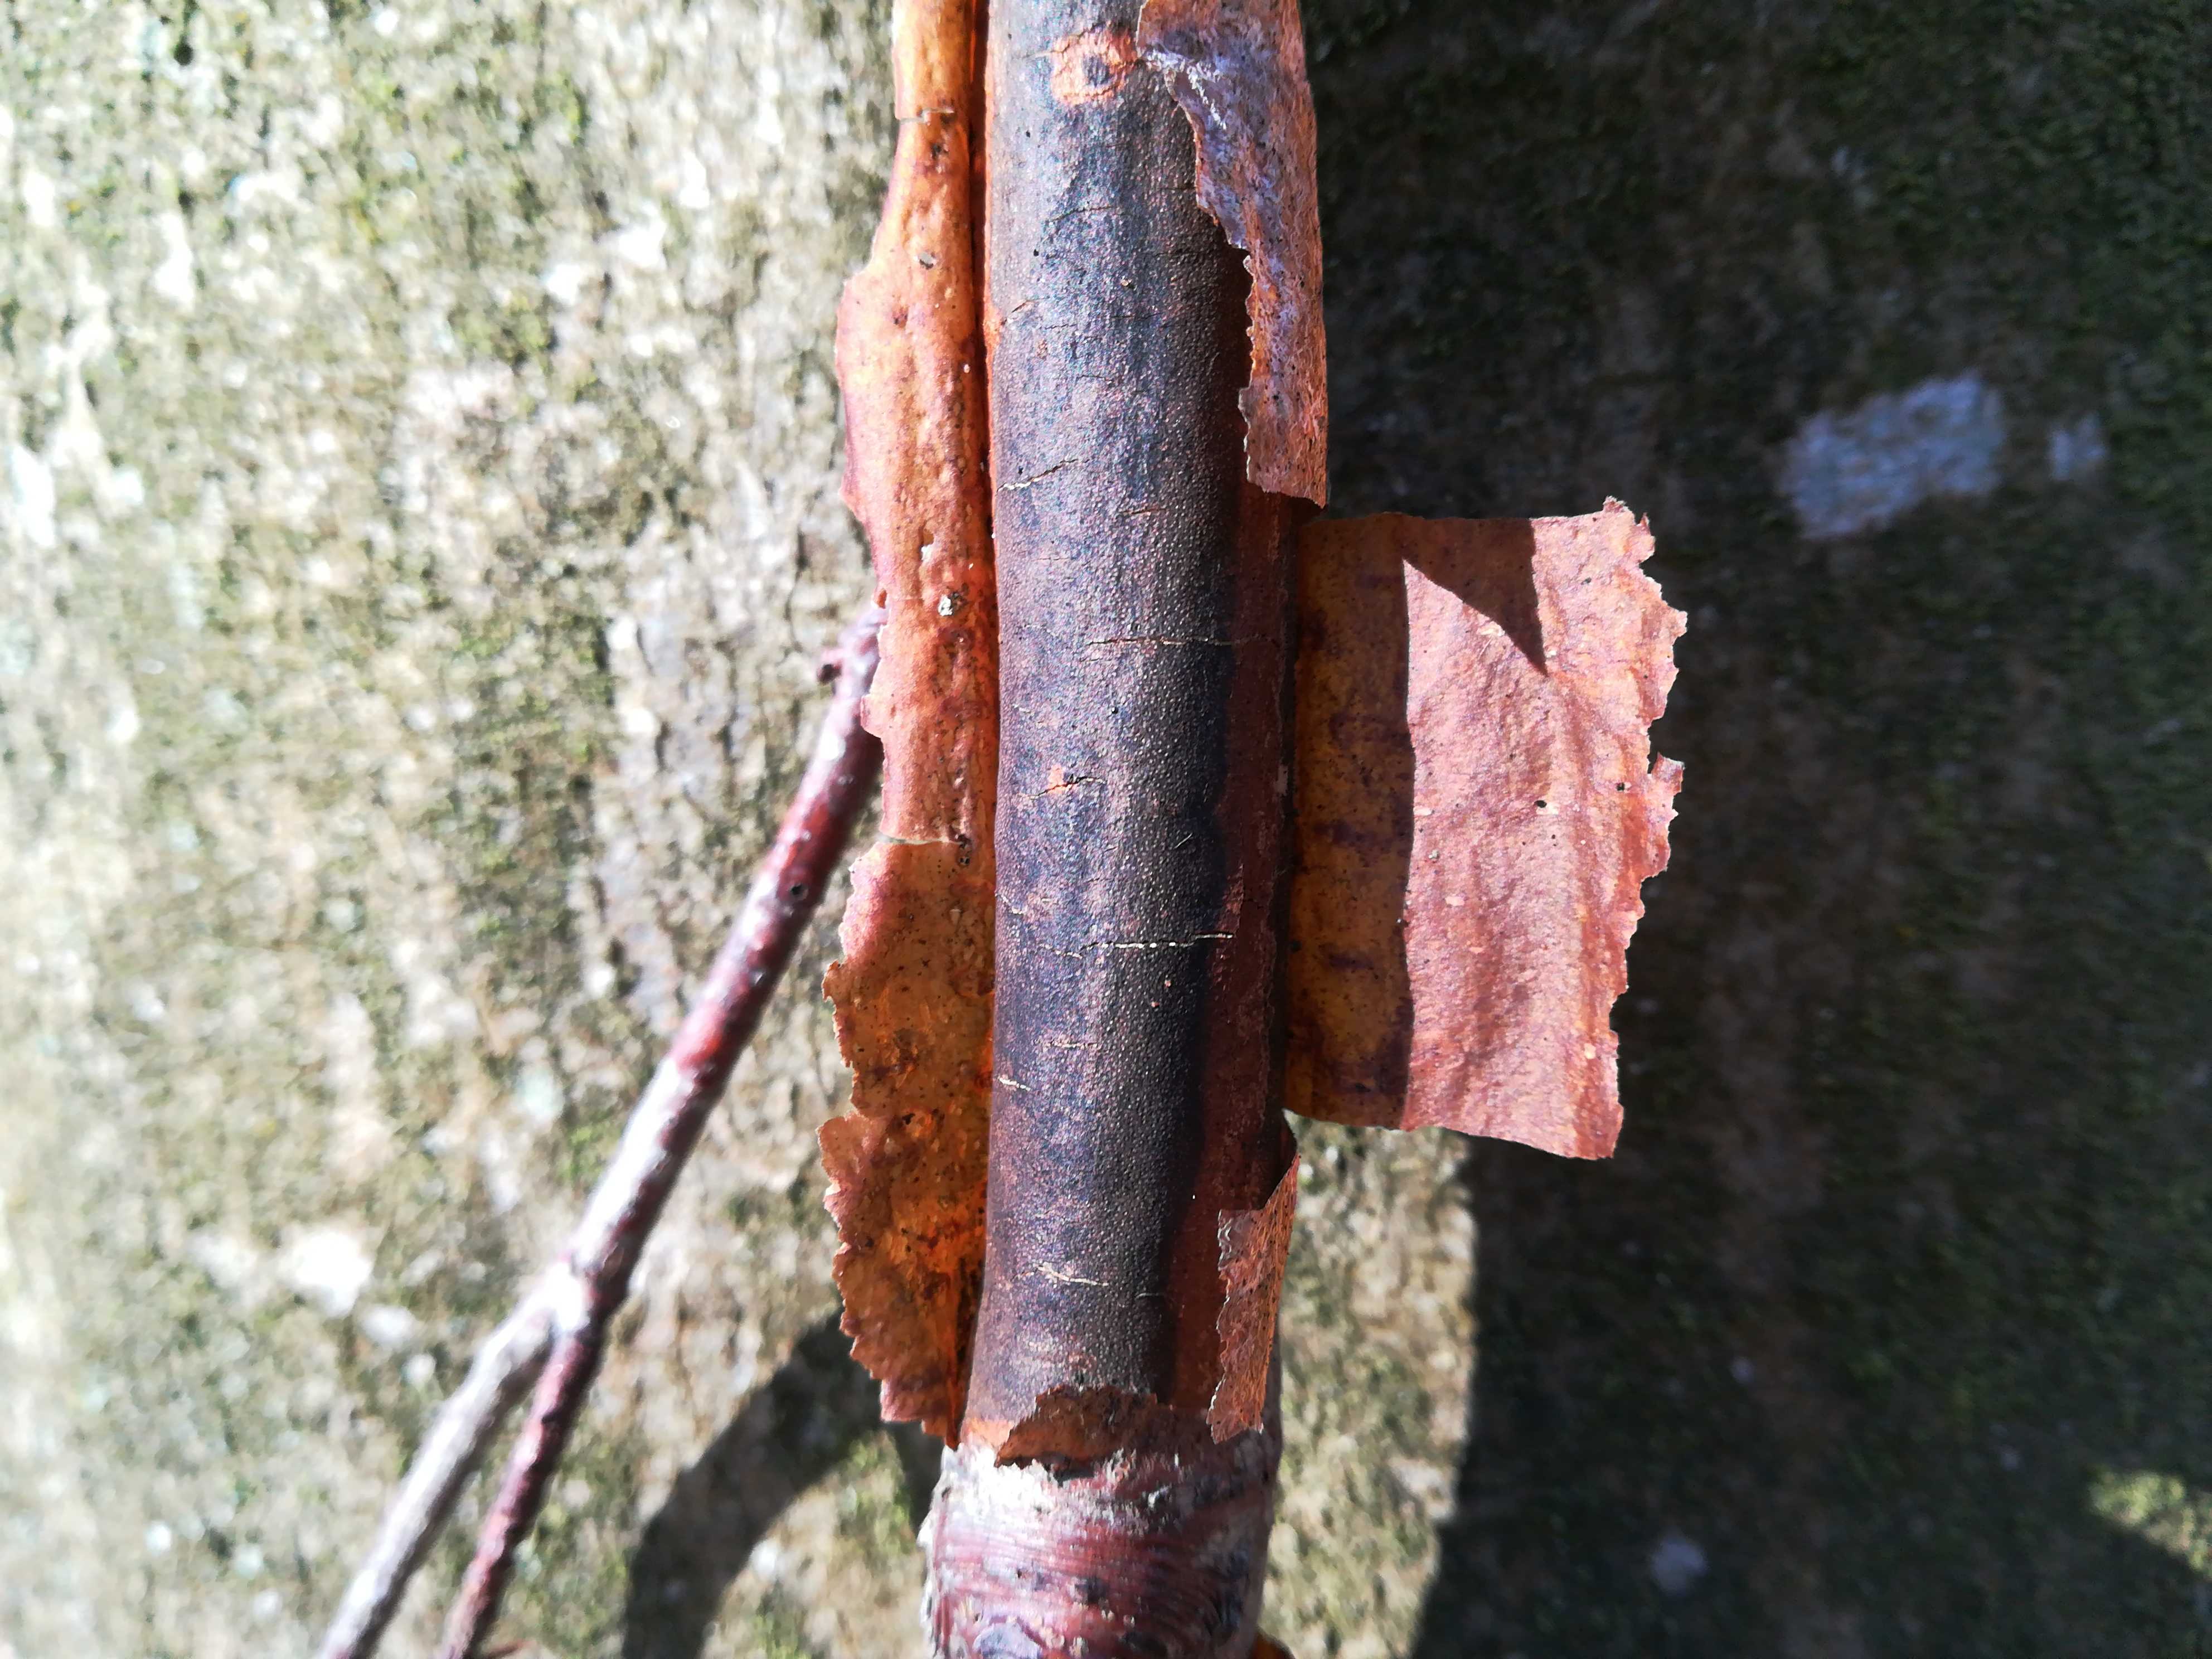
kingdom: Fungi
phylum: Ascomycota
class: Sordariomycetes
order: Xylariales
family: Diatrypaceae
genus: Diatrype
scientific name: Diatrype decorticata
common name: barksprænger-kulskorpe
